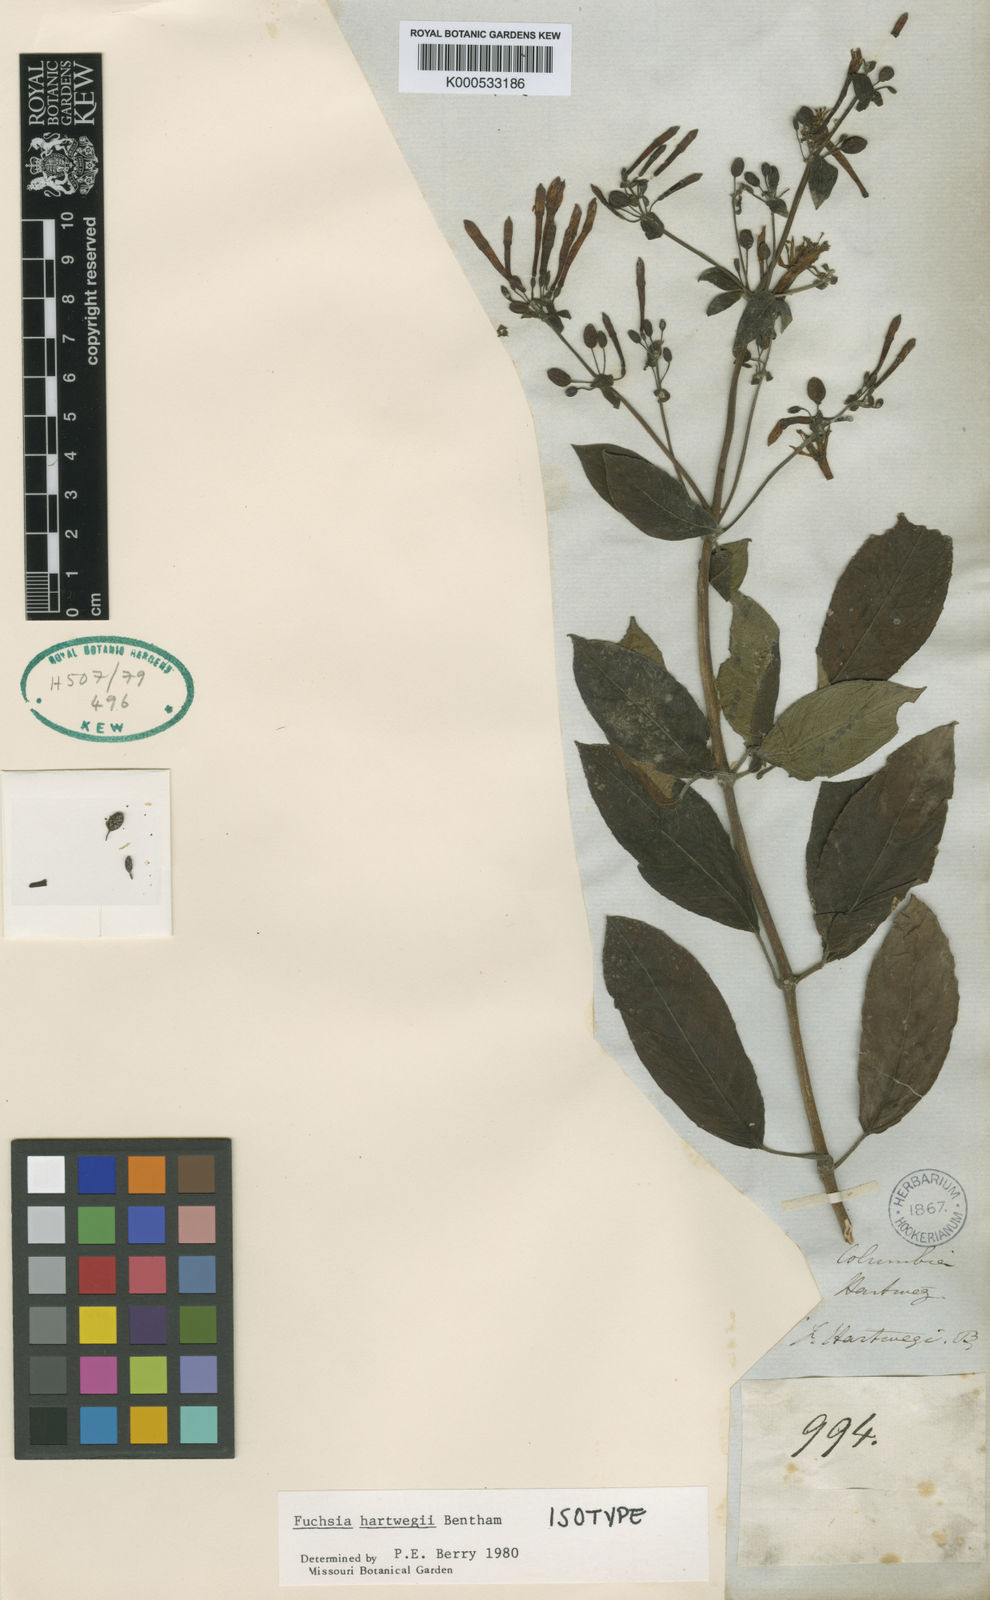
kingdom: Plantae
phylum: Tracheophyta
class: Magnoliopsida
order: Myrtales
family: Onagraceae
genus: Fuchsia
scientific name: Fuchsia hartwegii
